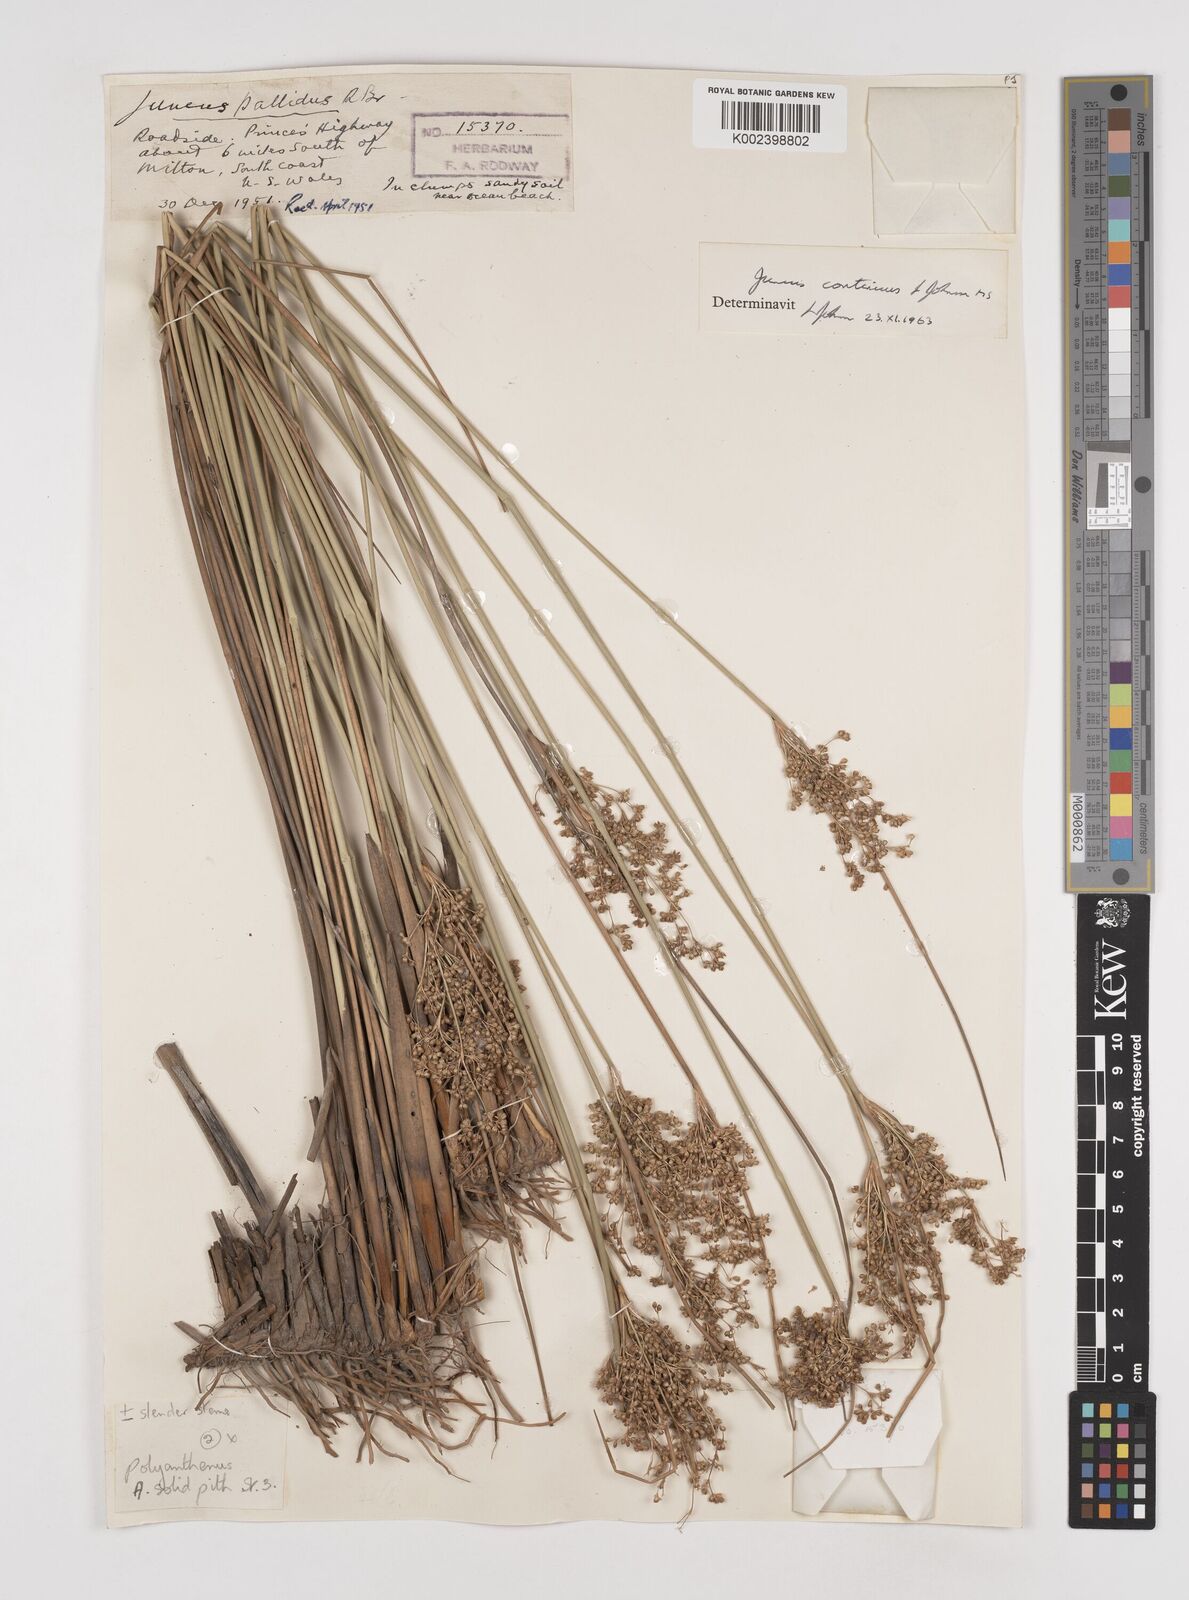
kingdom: Plantae
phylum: Tracheophyta
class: Liliopsida
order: Poales
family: Juncaceae
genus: Juncus
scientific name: Juncus continuus
